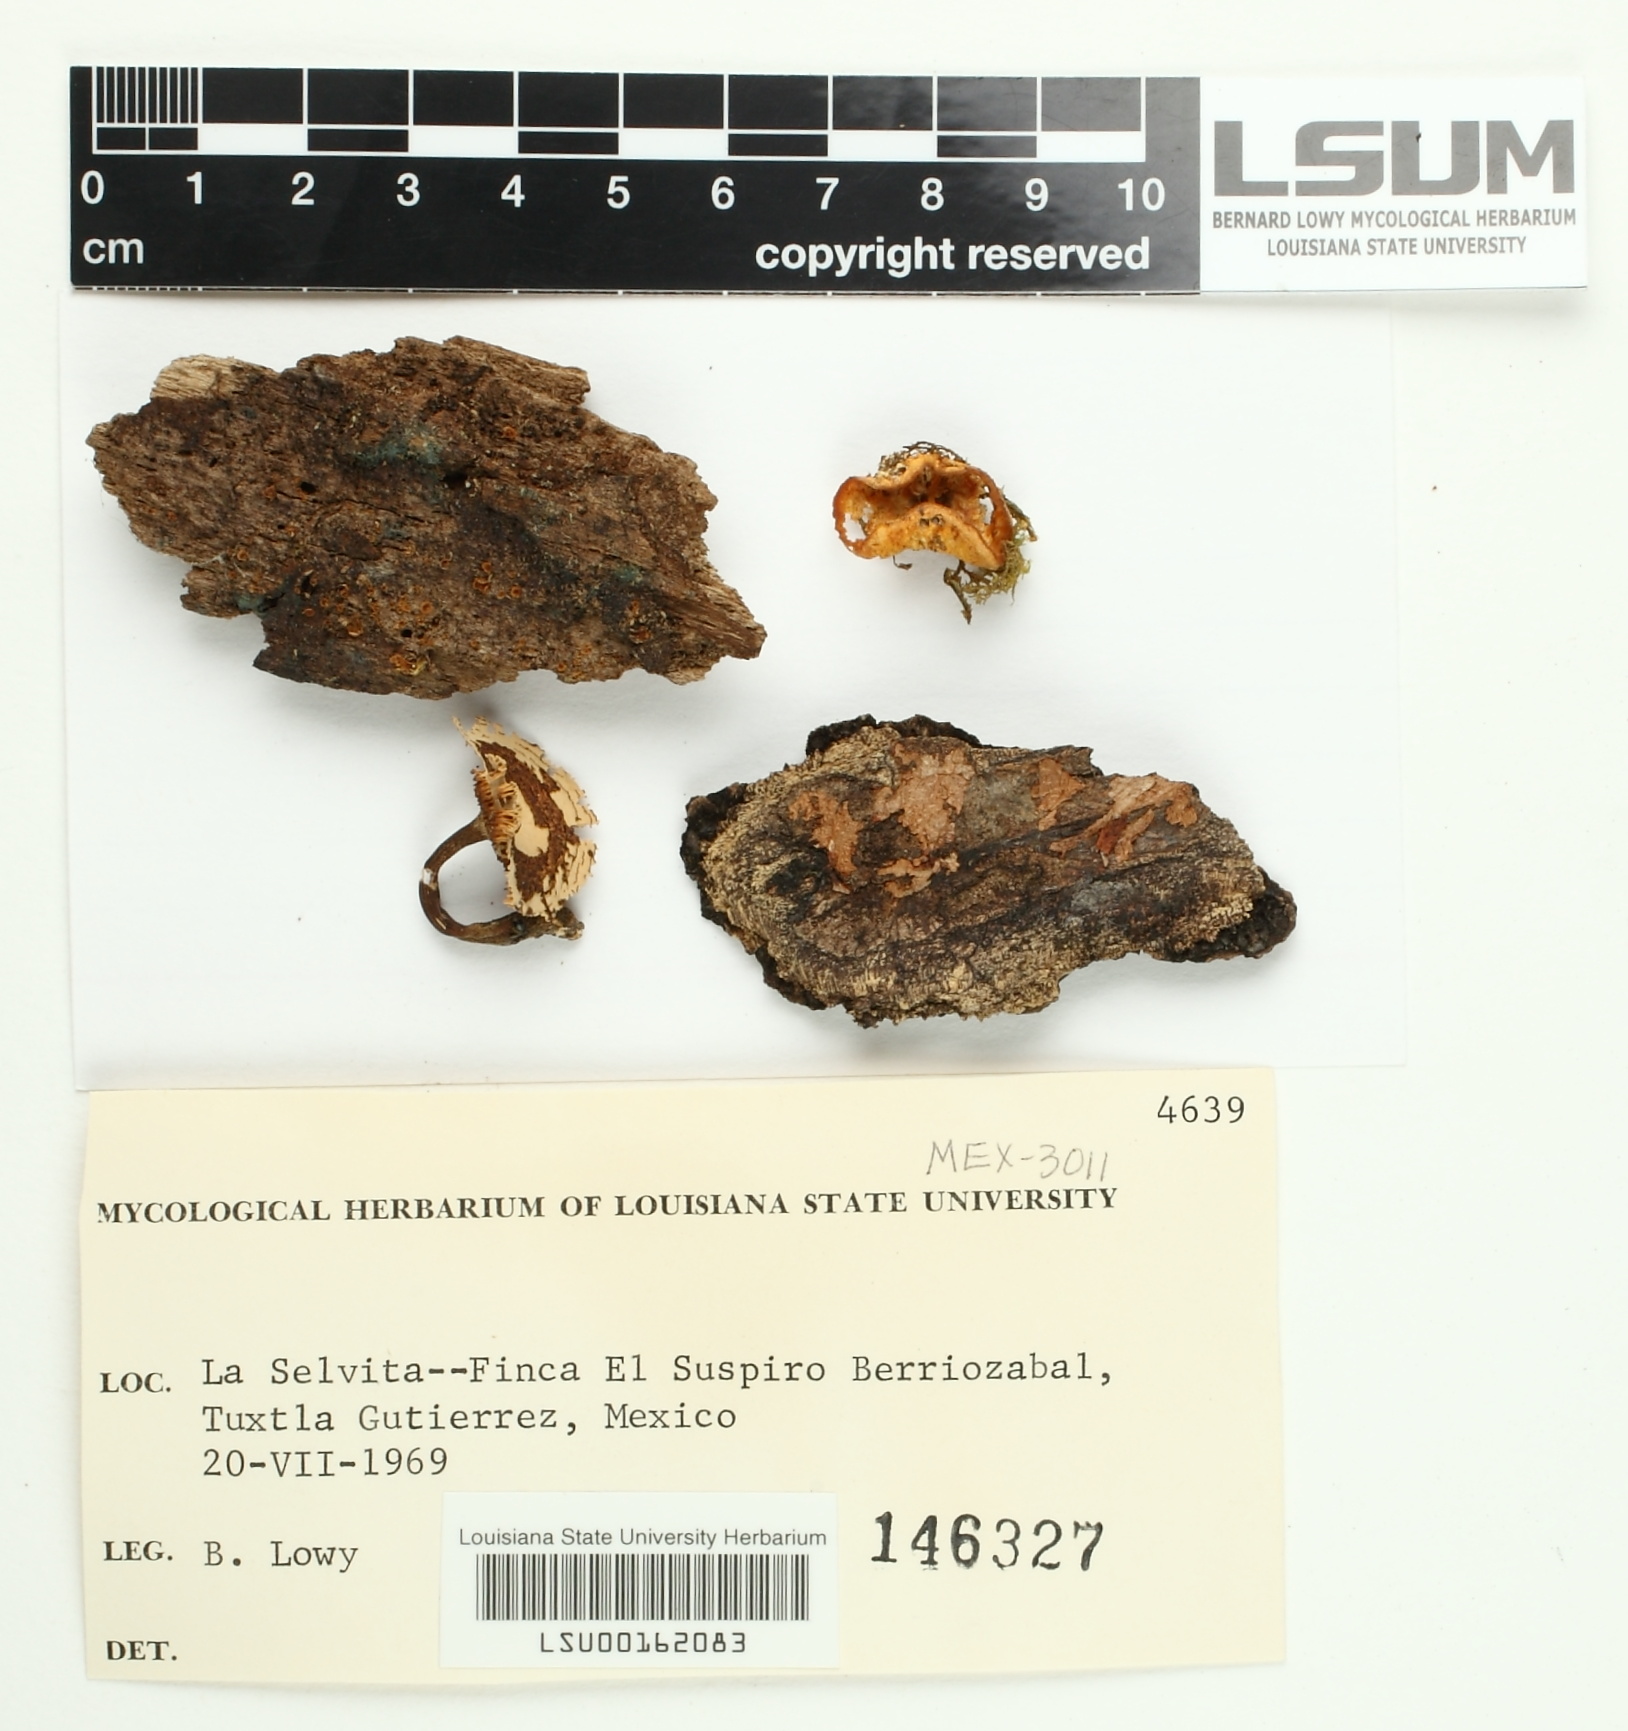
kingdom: Fungi
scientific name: Fungi
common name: Fungi
